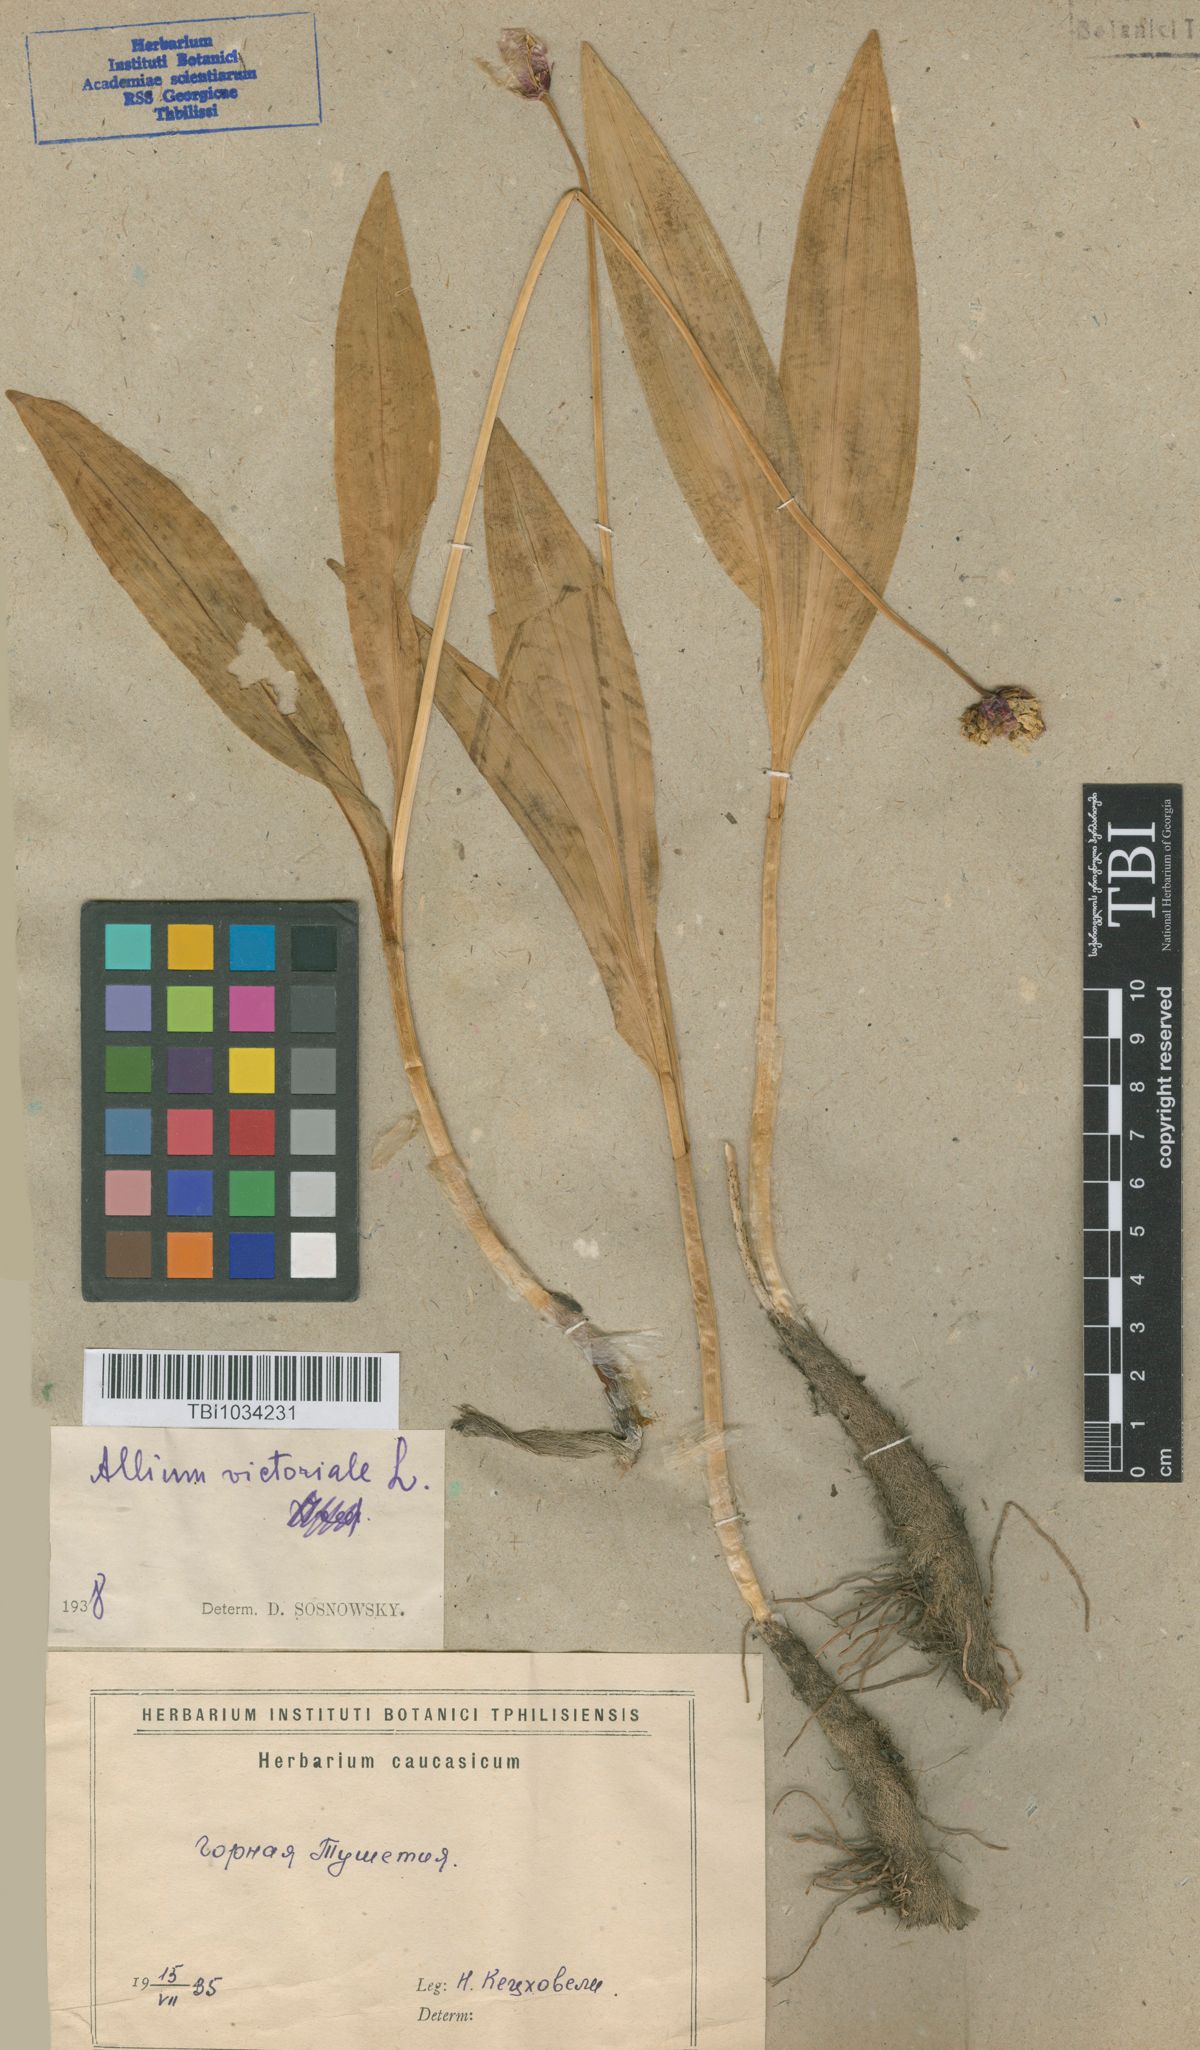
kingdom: Plantae
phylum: Tracheophyta
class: Liliopsida
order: Asparagales
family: Amaryllidaceae
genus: Allium
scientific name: Allium victorialis
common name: Alpine leek
